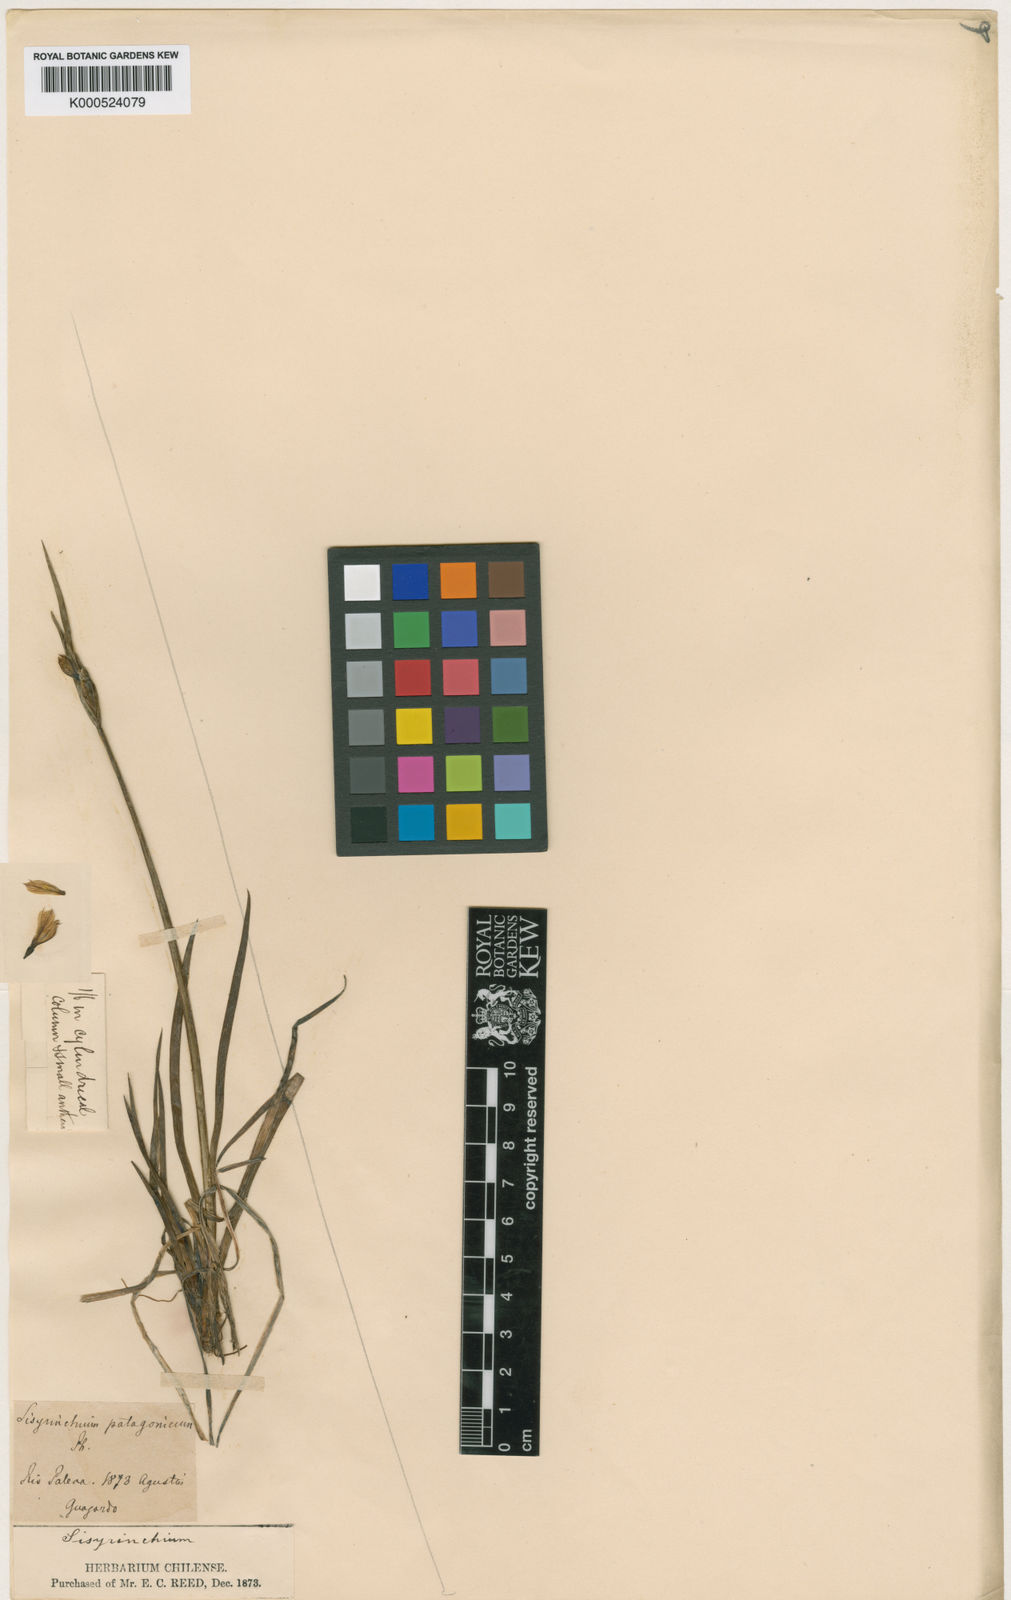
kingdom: Plantae
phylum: Tracheophyta
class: Liliopsida
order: Asparagales
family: Iridaceae
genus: Sisyrinchium
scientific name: Sisyrinchium patagonicum
